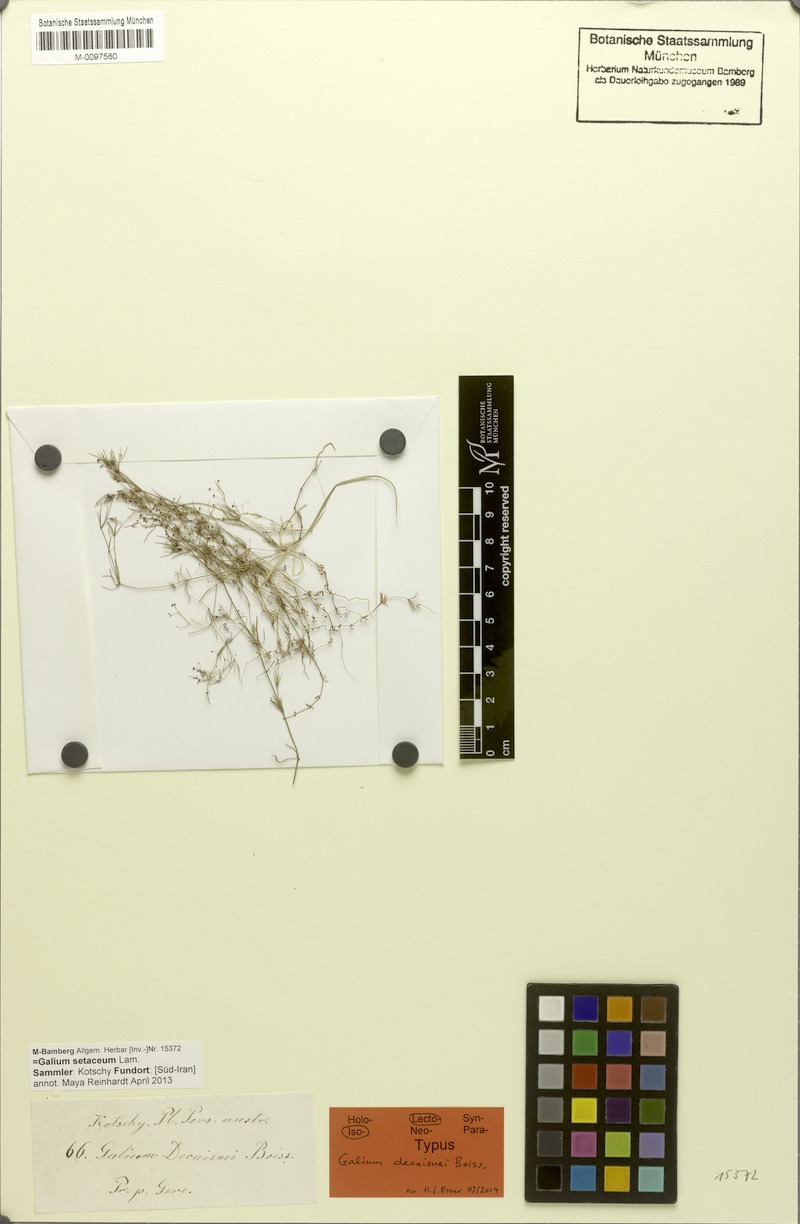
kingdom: Plantae
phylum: Tracheophyta
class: Magnoliopsida
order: Gentianales
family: Rubiaceae
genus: Galium
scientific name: Galium setaceum
